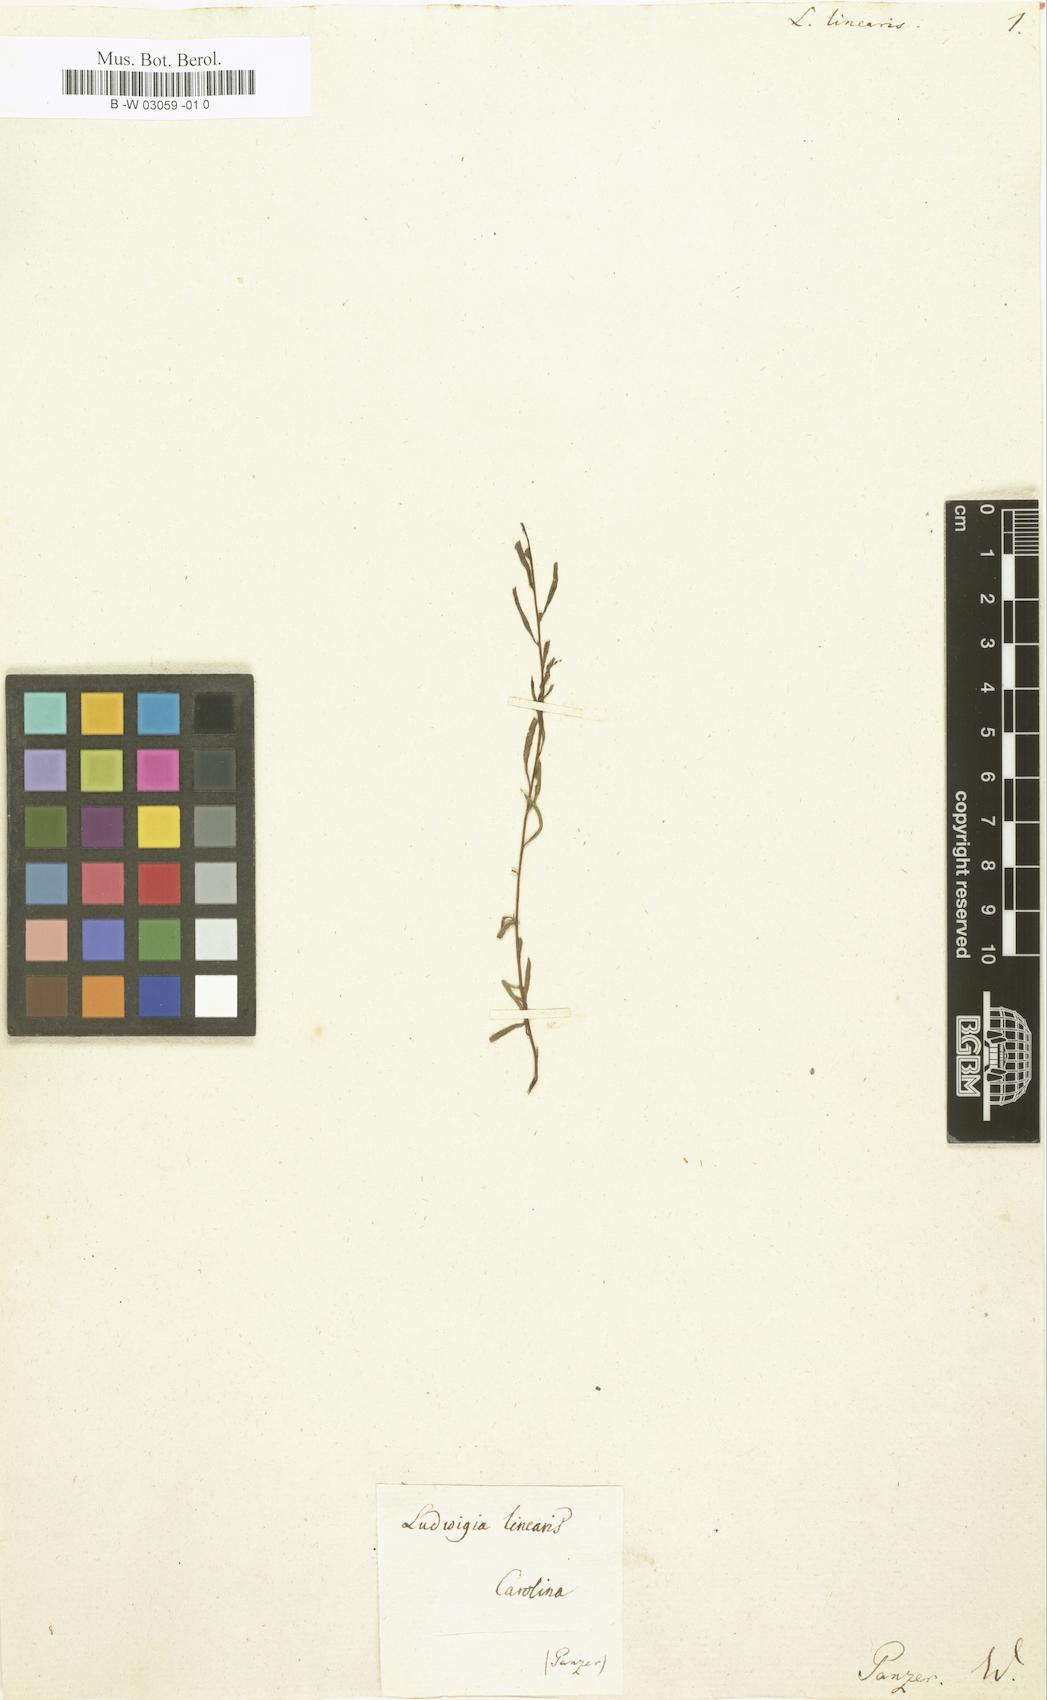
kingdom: Plantae
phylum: Tracheophyta
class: Magnoliopsida
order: Myrtales
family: Onagraceae
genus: Ludwigia
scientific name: Ludwigia linearis
